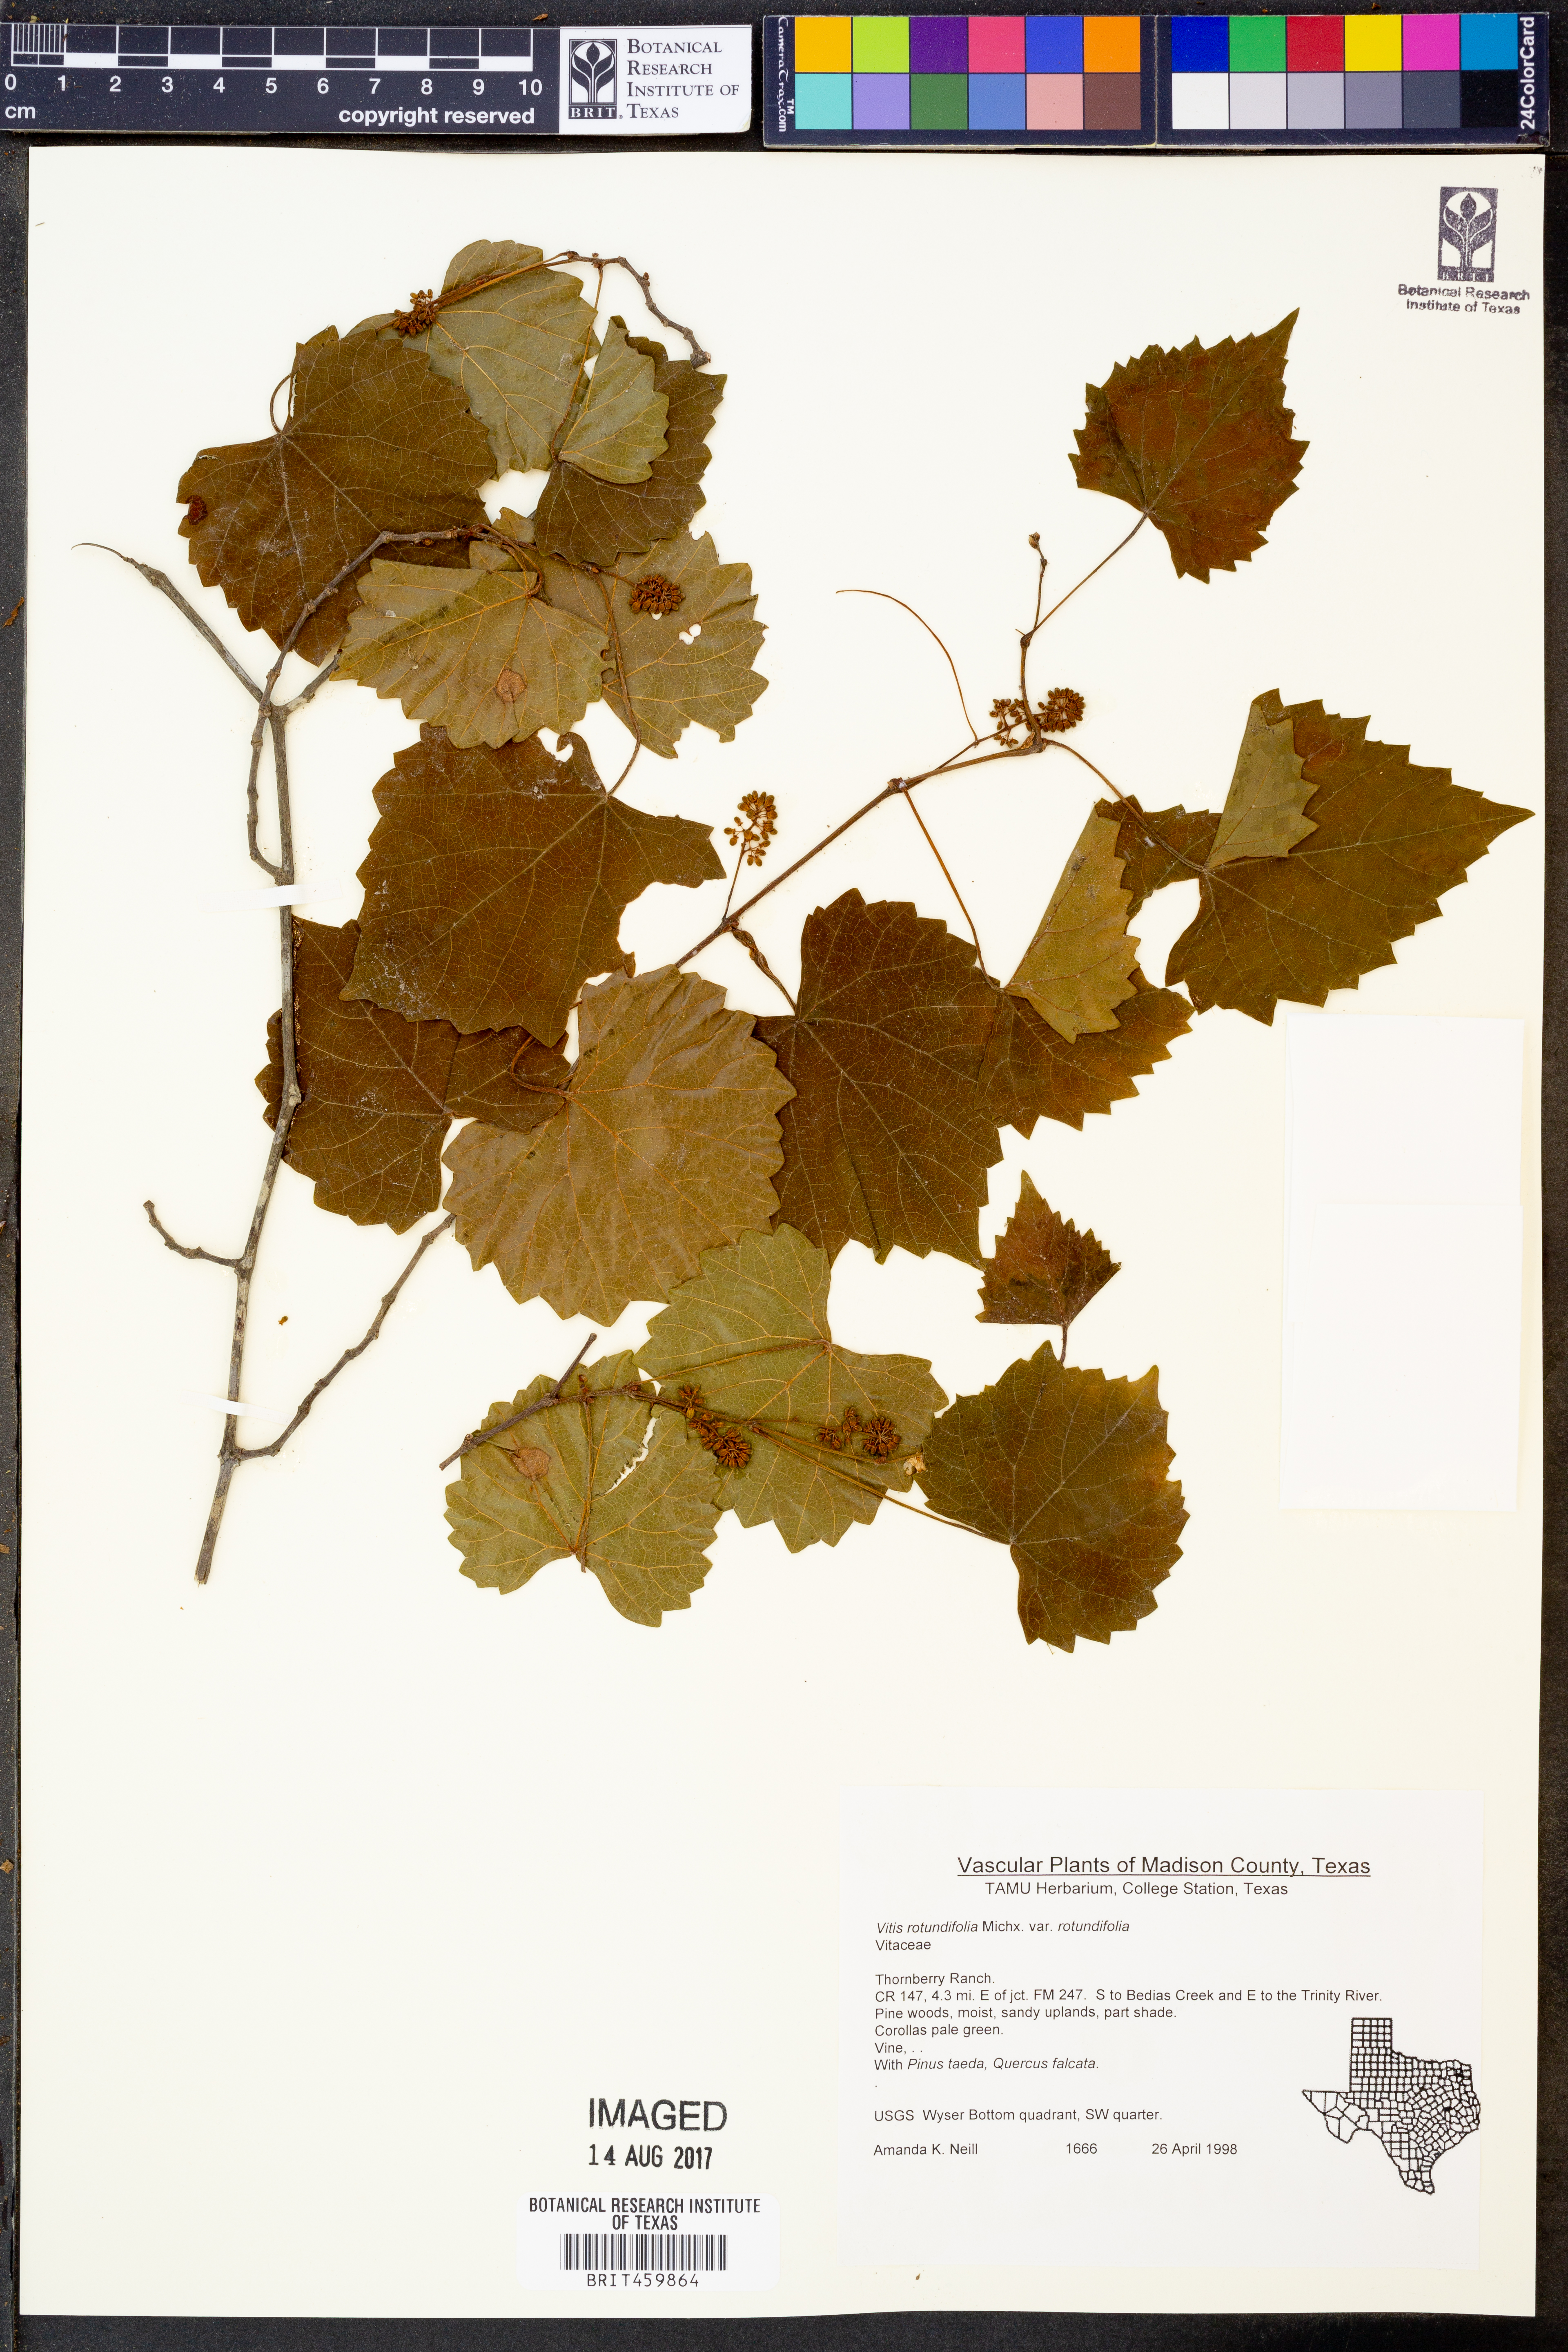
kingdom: Plantae
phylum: Tracheophyta
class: Magnoliopsida
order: Vitales
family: Vitaceae
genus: Vitis
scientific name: Vitis rotundifolia
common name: Muscadine grape
